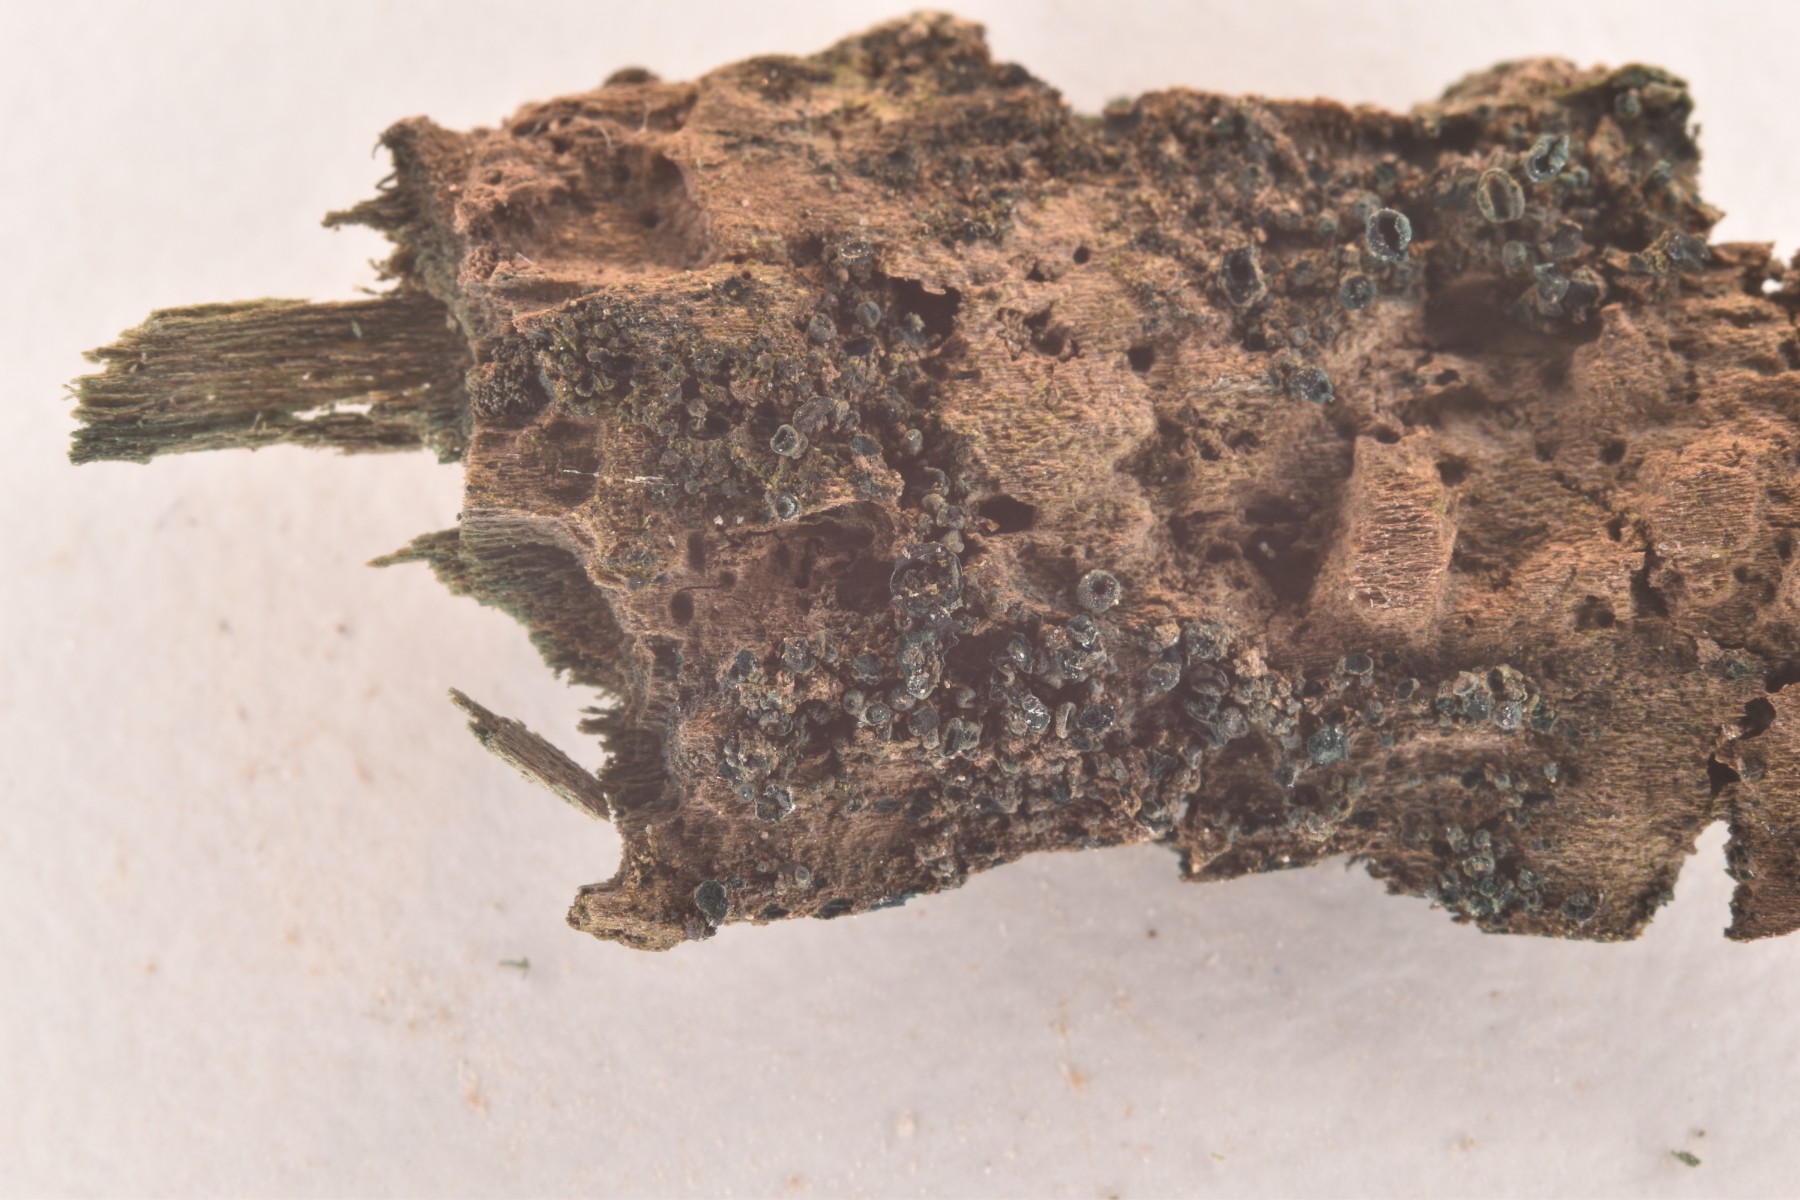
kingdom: Fungi
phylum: Ascomycota
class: Leotiomycetes
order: Helotiales
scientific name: Helotiales
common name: stilkskiveordenen
